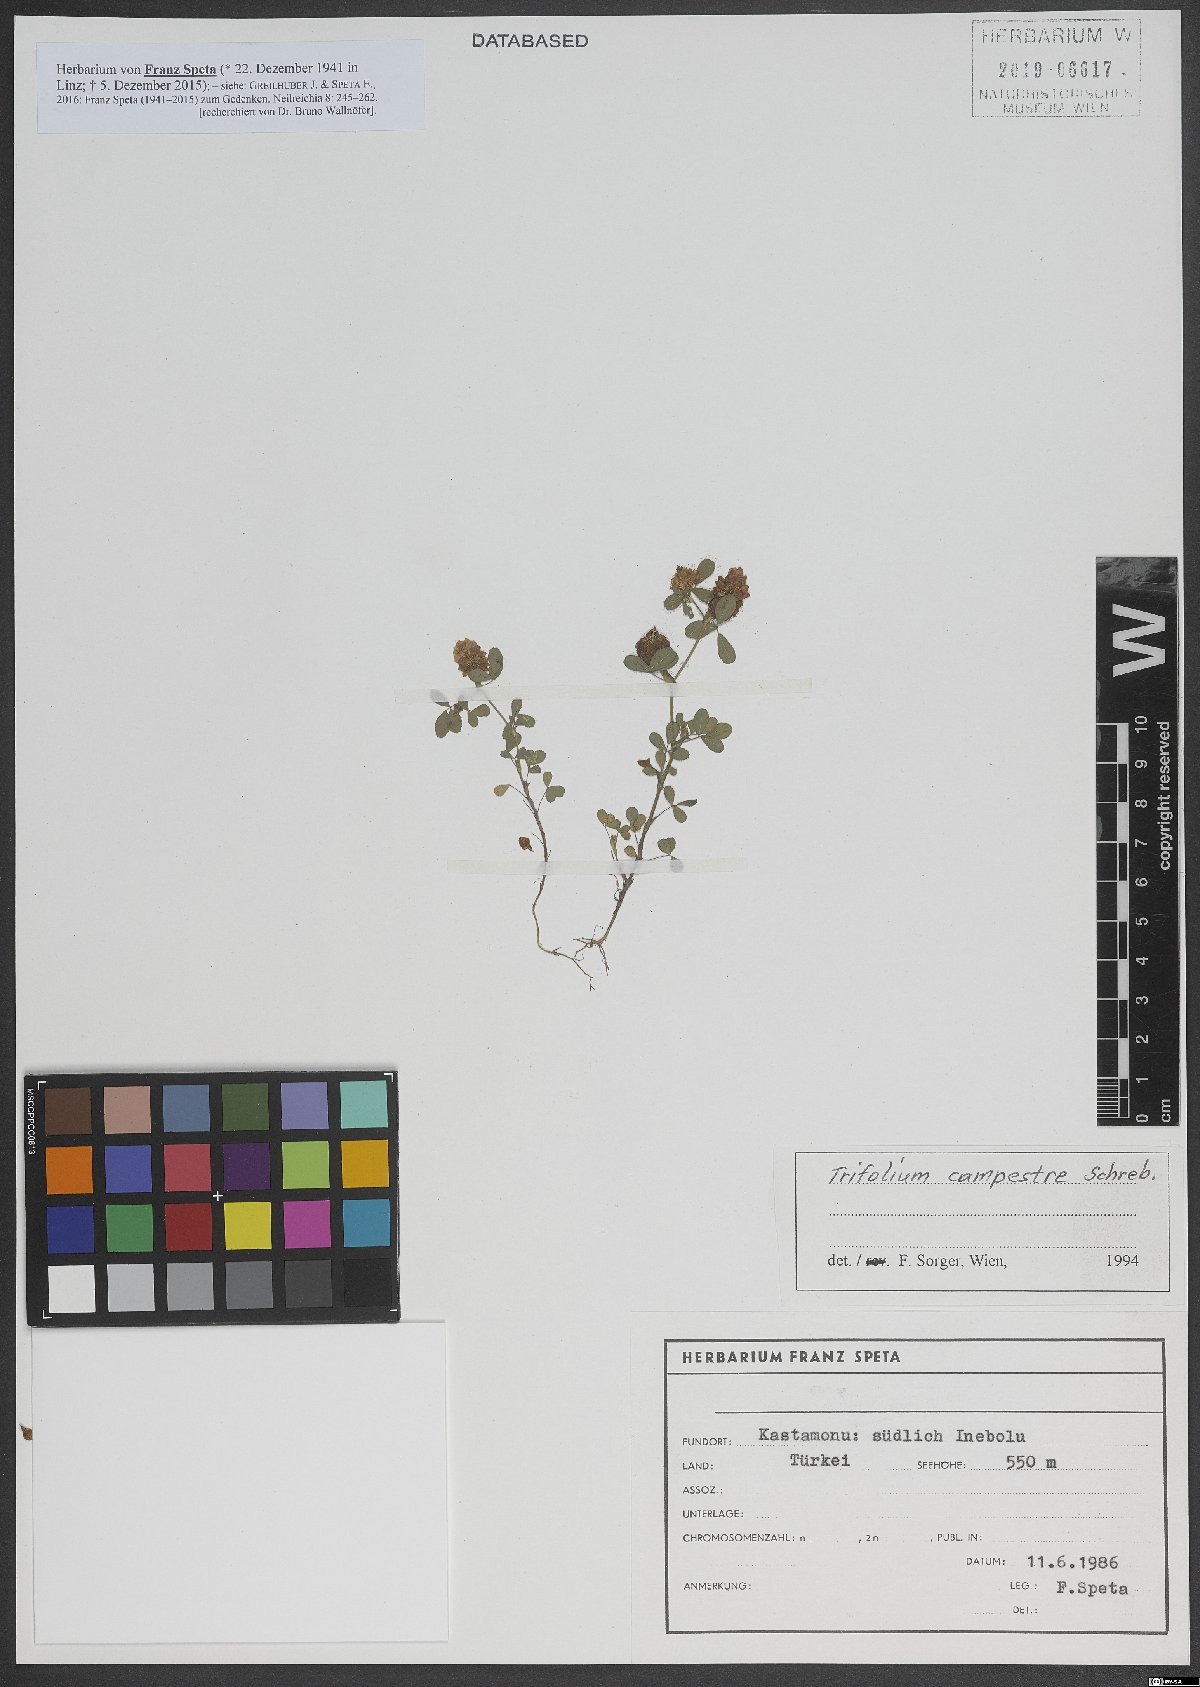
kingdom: Plantae
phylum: Tracheophyta
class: Magnoliopsida
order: Fabales
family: Fabaceae
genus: Trifolium
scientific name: Trifolium campestre
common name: Field clover
